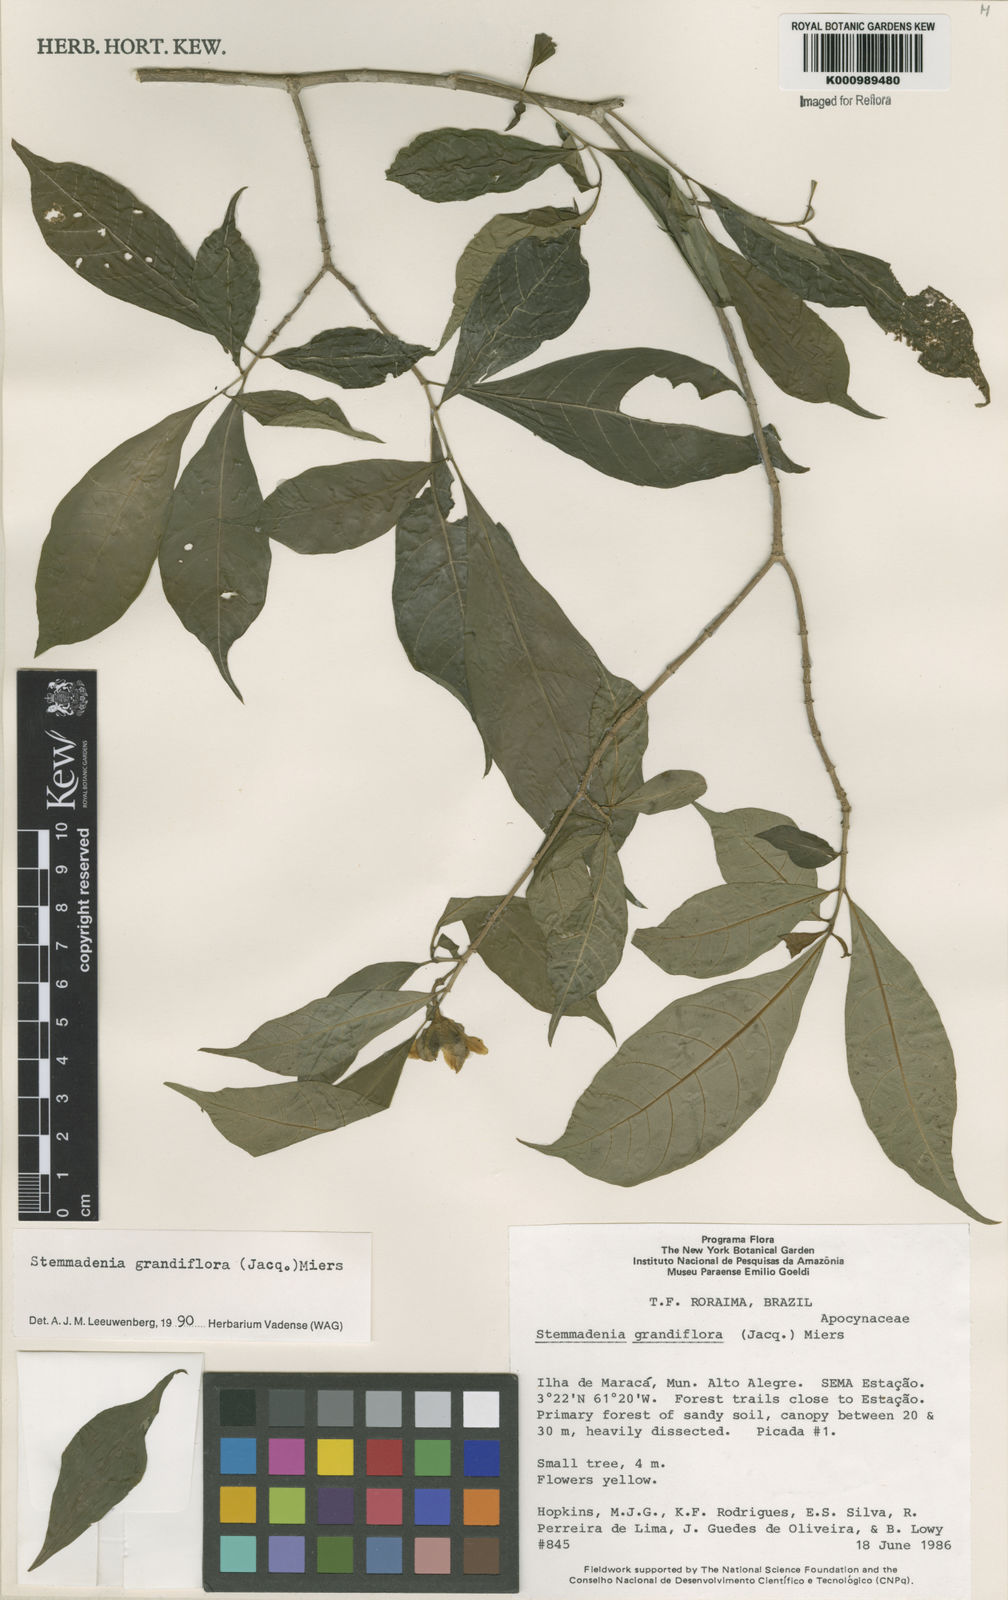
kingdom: Plantae
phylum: Tracheophyta
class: Magnoliopsida
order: Gentianales
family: Apocynaceae
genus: Tabernaemontana
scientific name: Tabernaemontana grandiflora
